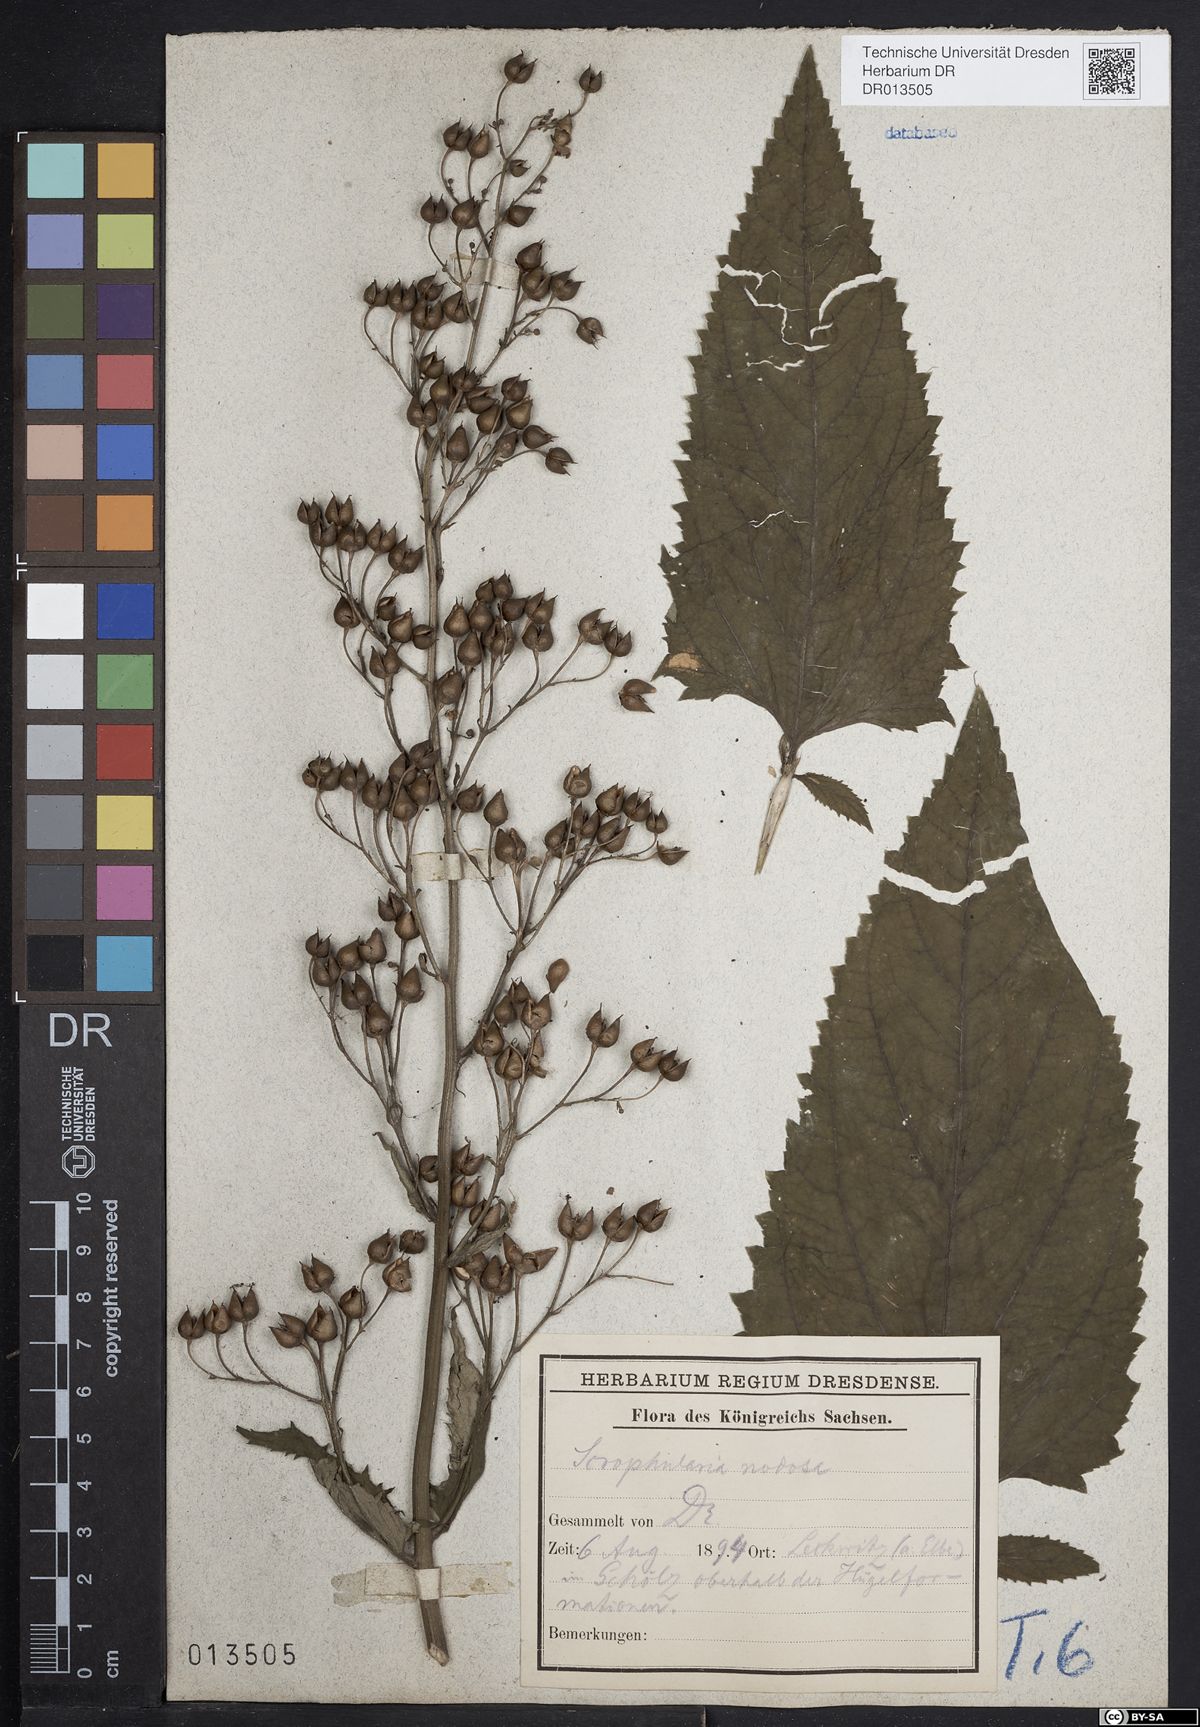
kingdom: Plantae
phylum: Tracheophyta
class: Magnoliopsida
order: Lamiales
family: Scrophulariaceae
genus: Scrophularia
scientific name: Scrophularia nodosa
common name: Common figwort
